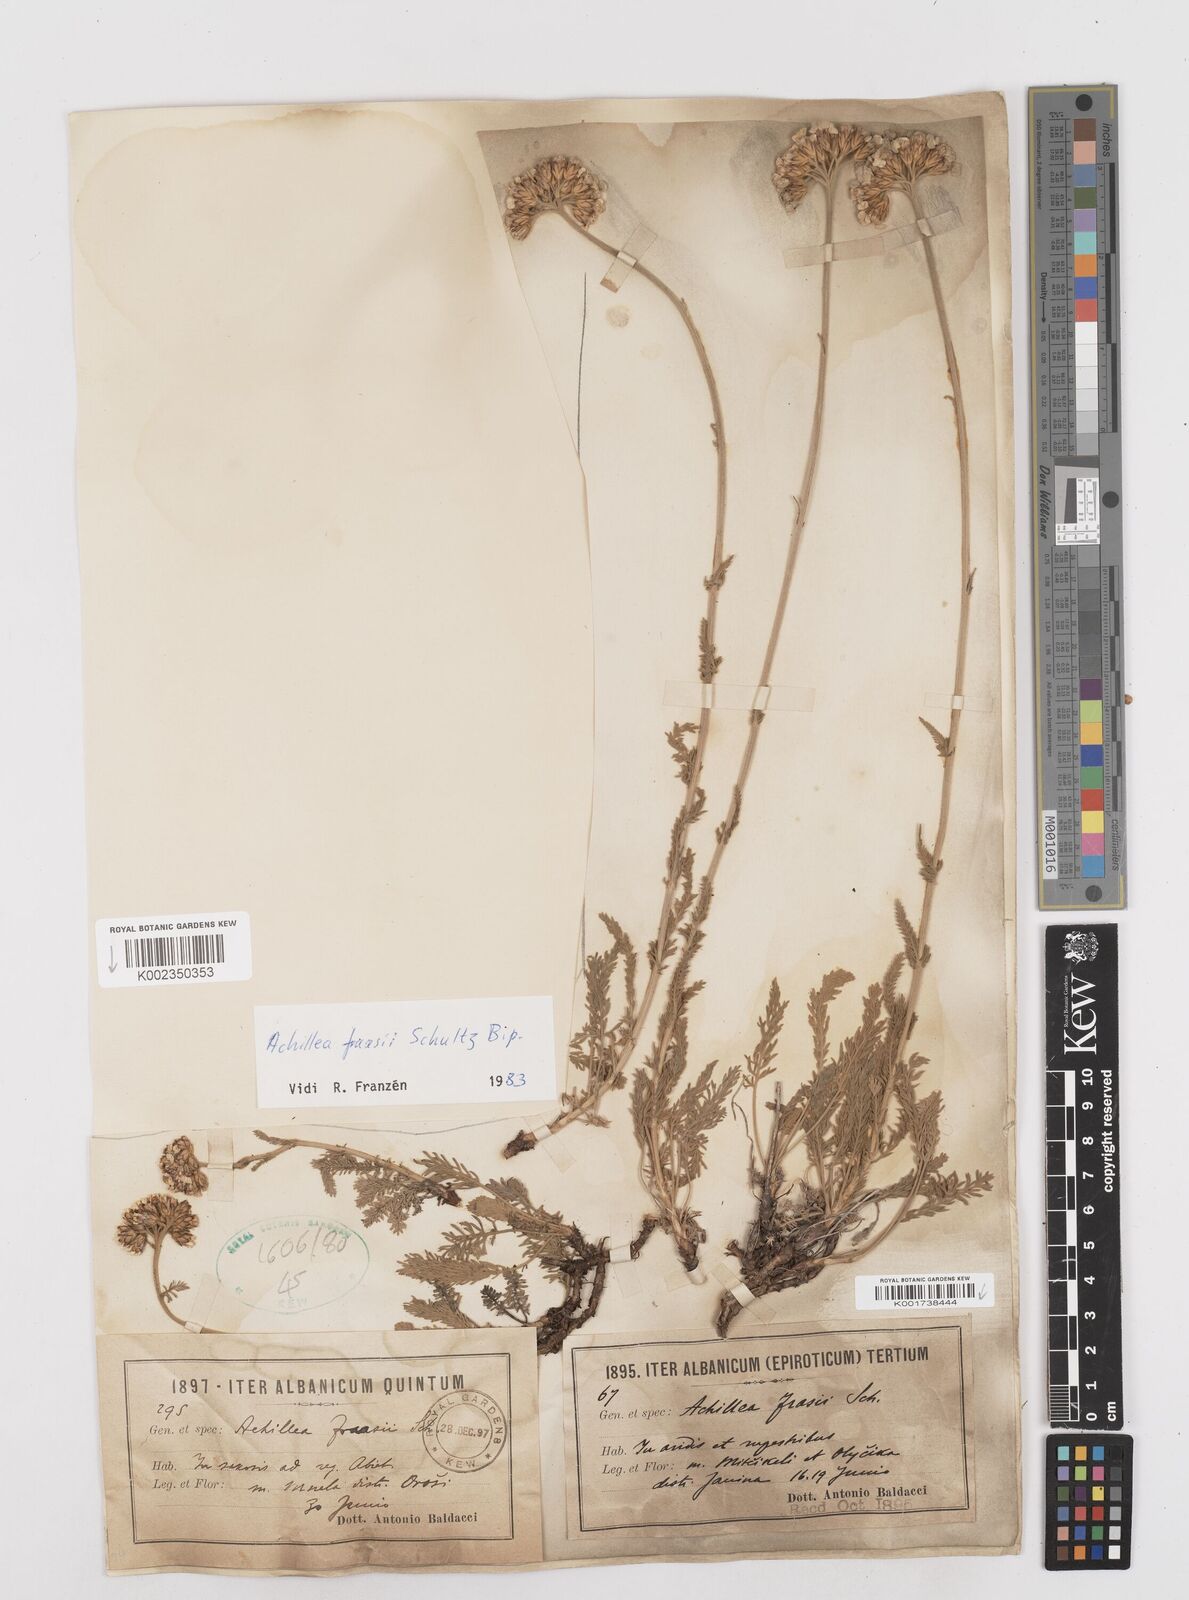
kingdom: Plantae
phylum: Tracheophyta
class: Magnoliopsida
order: Asterales
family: Asteraceae
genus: Achillea
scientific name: Achillea fraasii
